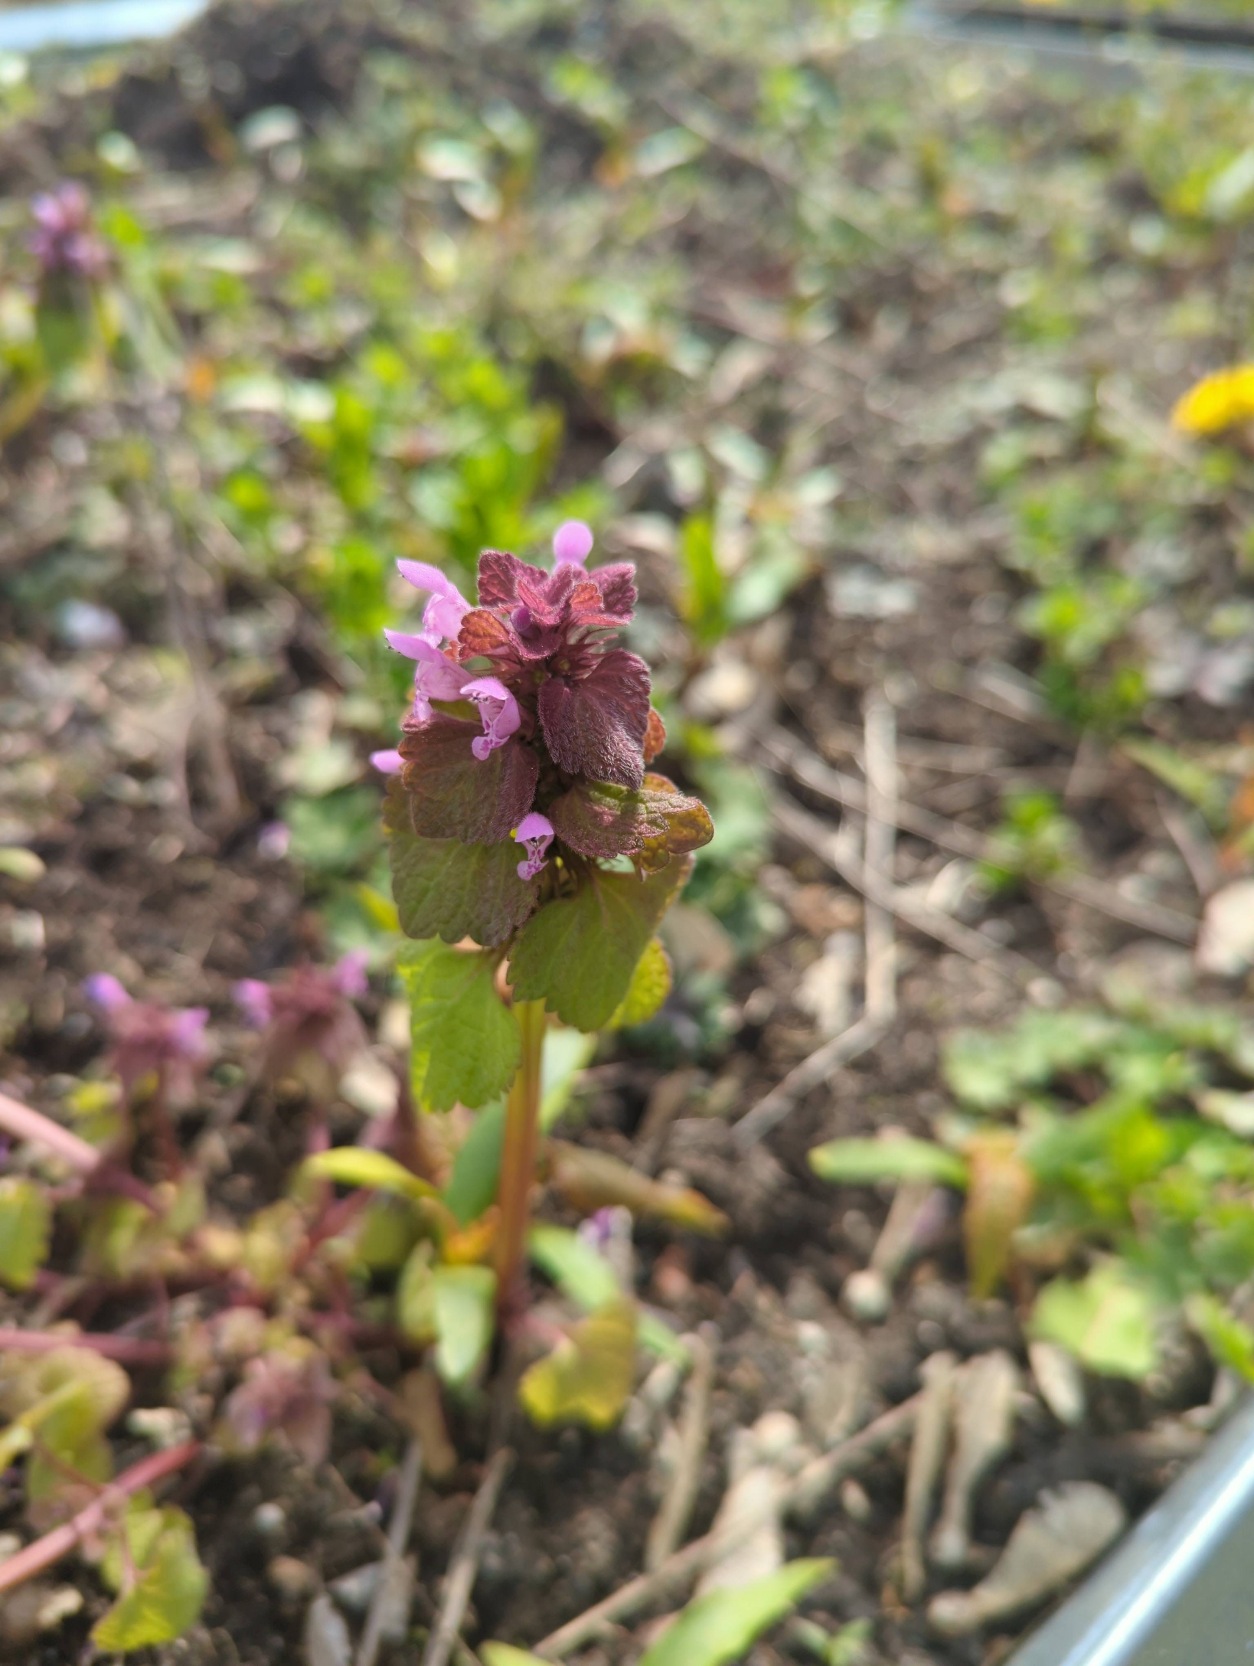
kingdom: Plantae
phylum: Tracheophyta
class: Magnoliopsida
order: Lamiales
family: Lamiaceae
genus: Lamium
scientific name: Lamium purpureum
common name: Rød tvetand
